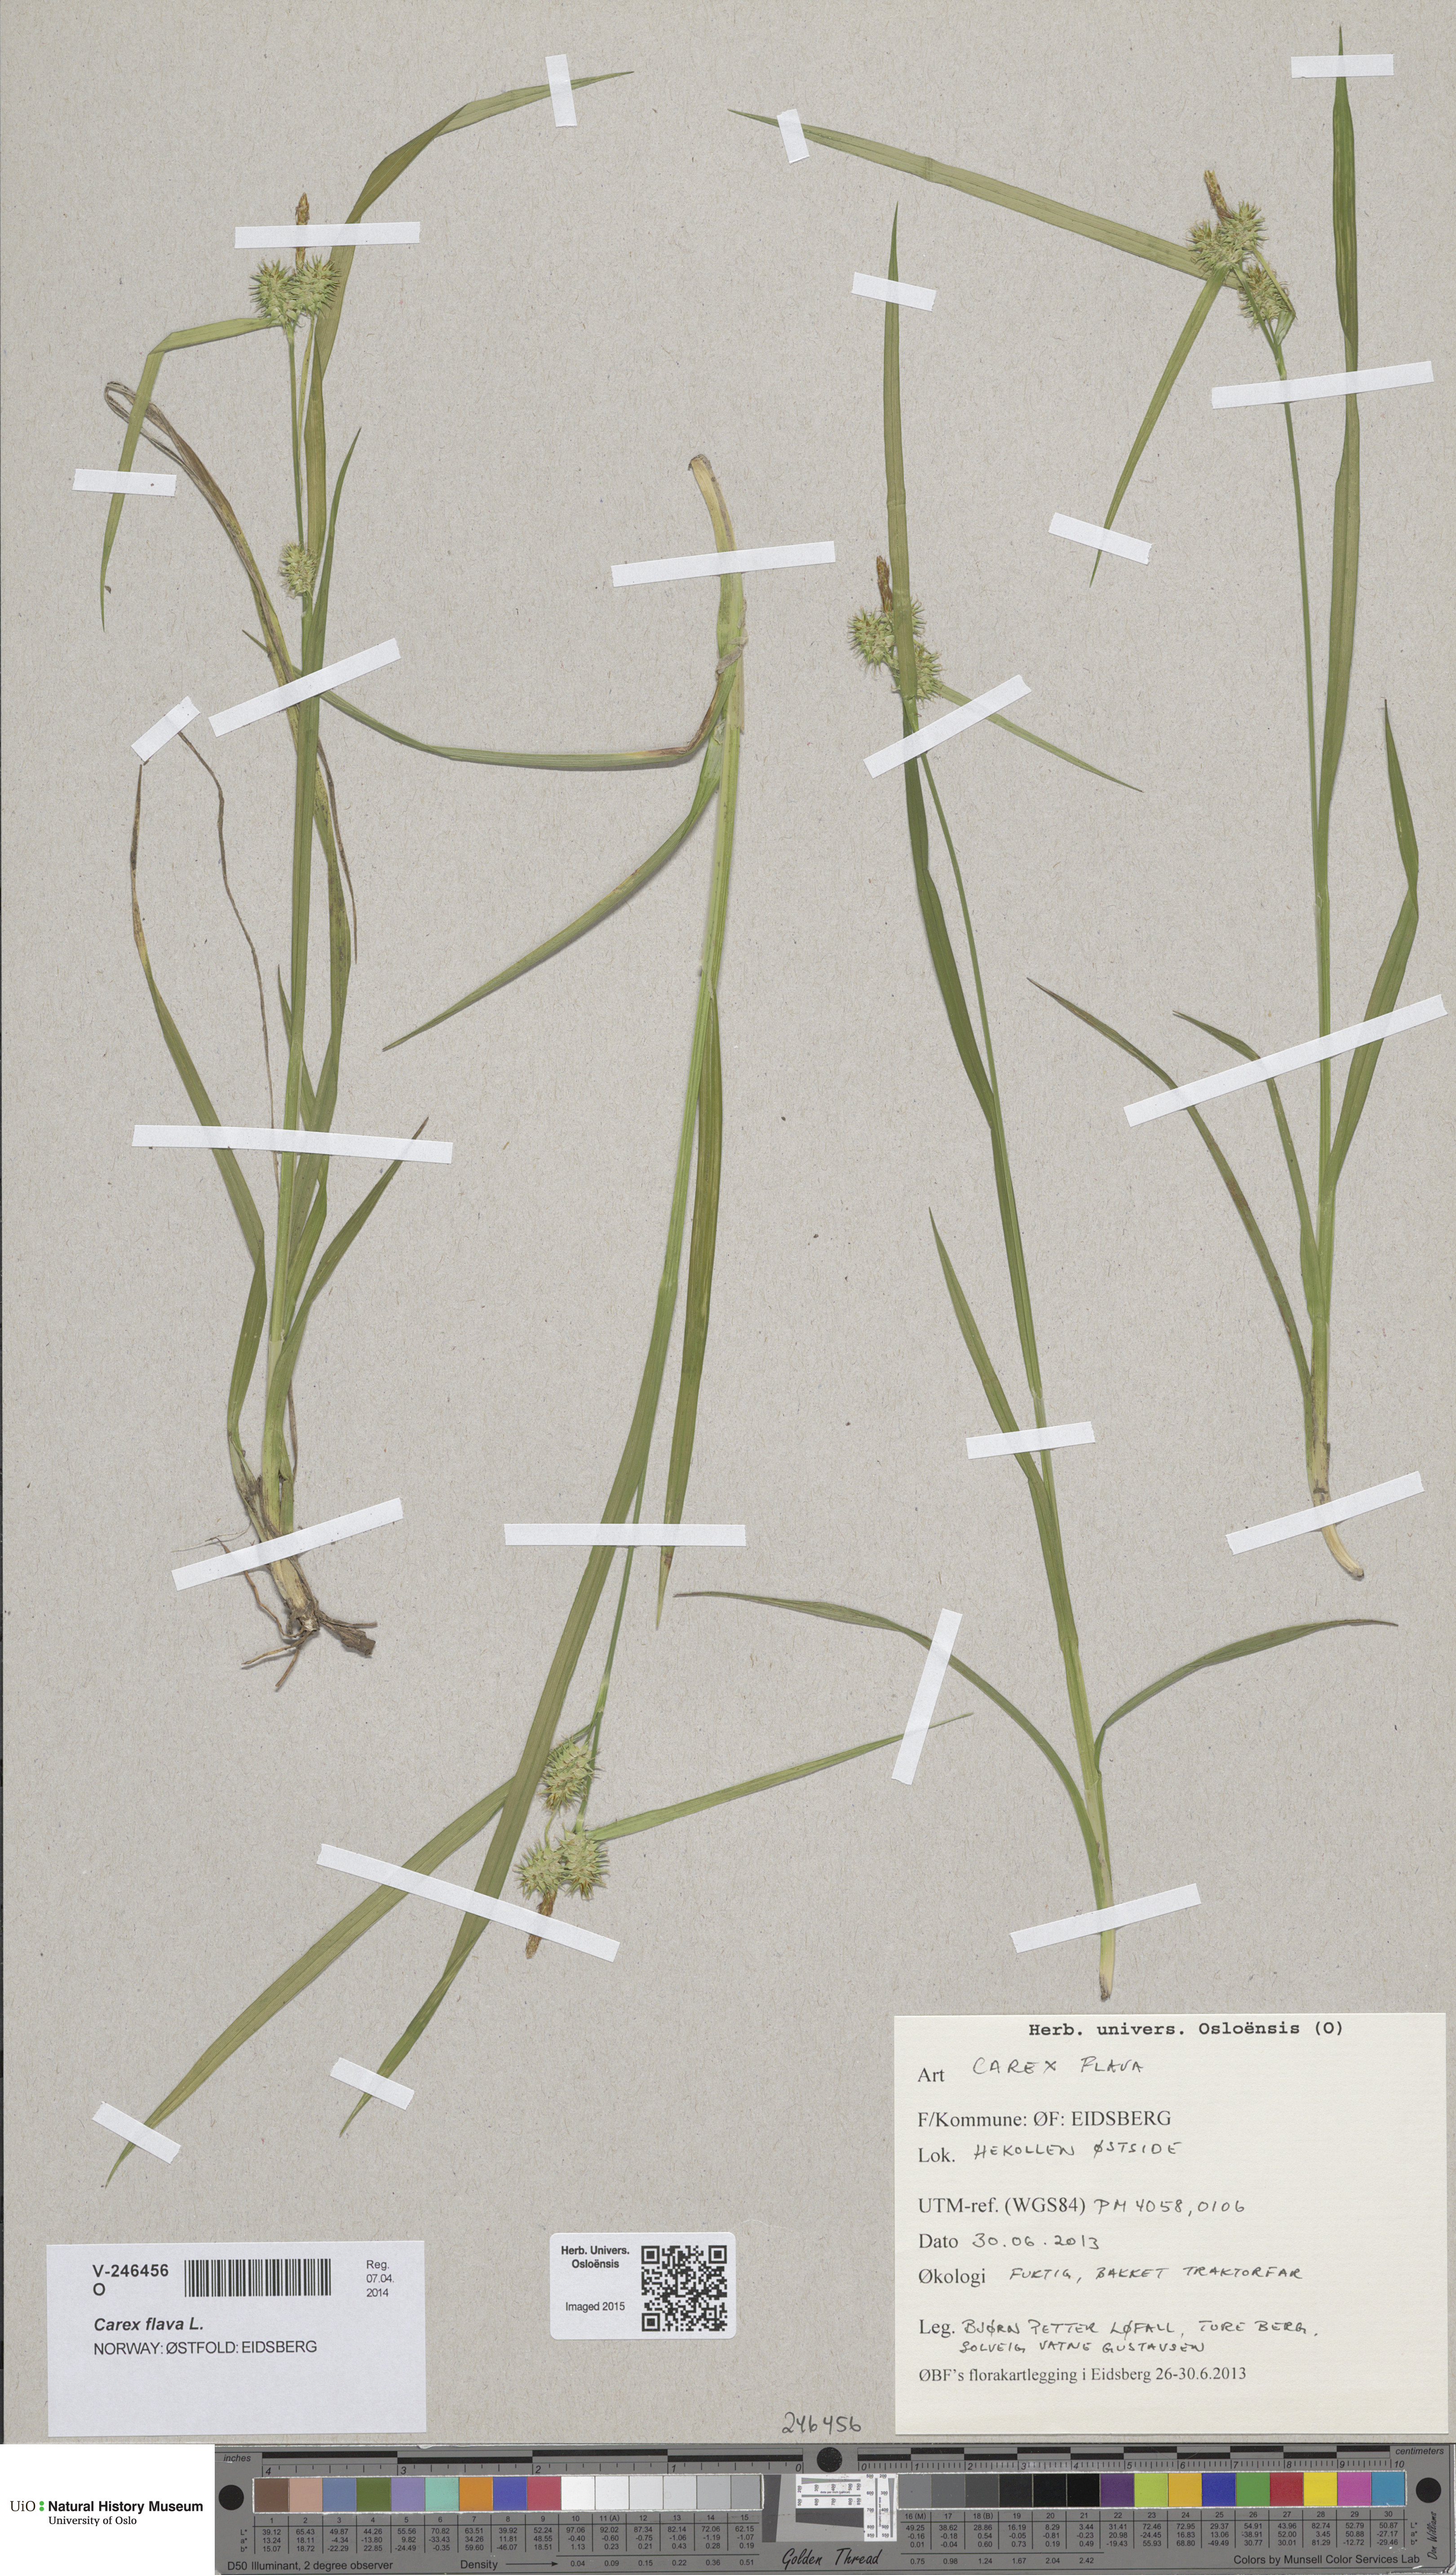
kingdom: Plantae
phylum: Tracheophyta
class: Liliopsida
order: Poales
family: Cyperaceae
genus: Carex
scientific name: Carex flava
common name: Large yellow-sedge
